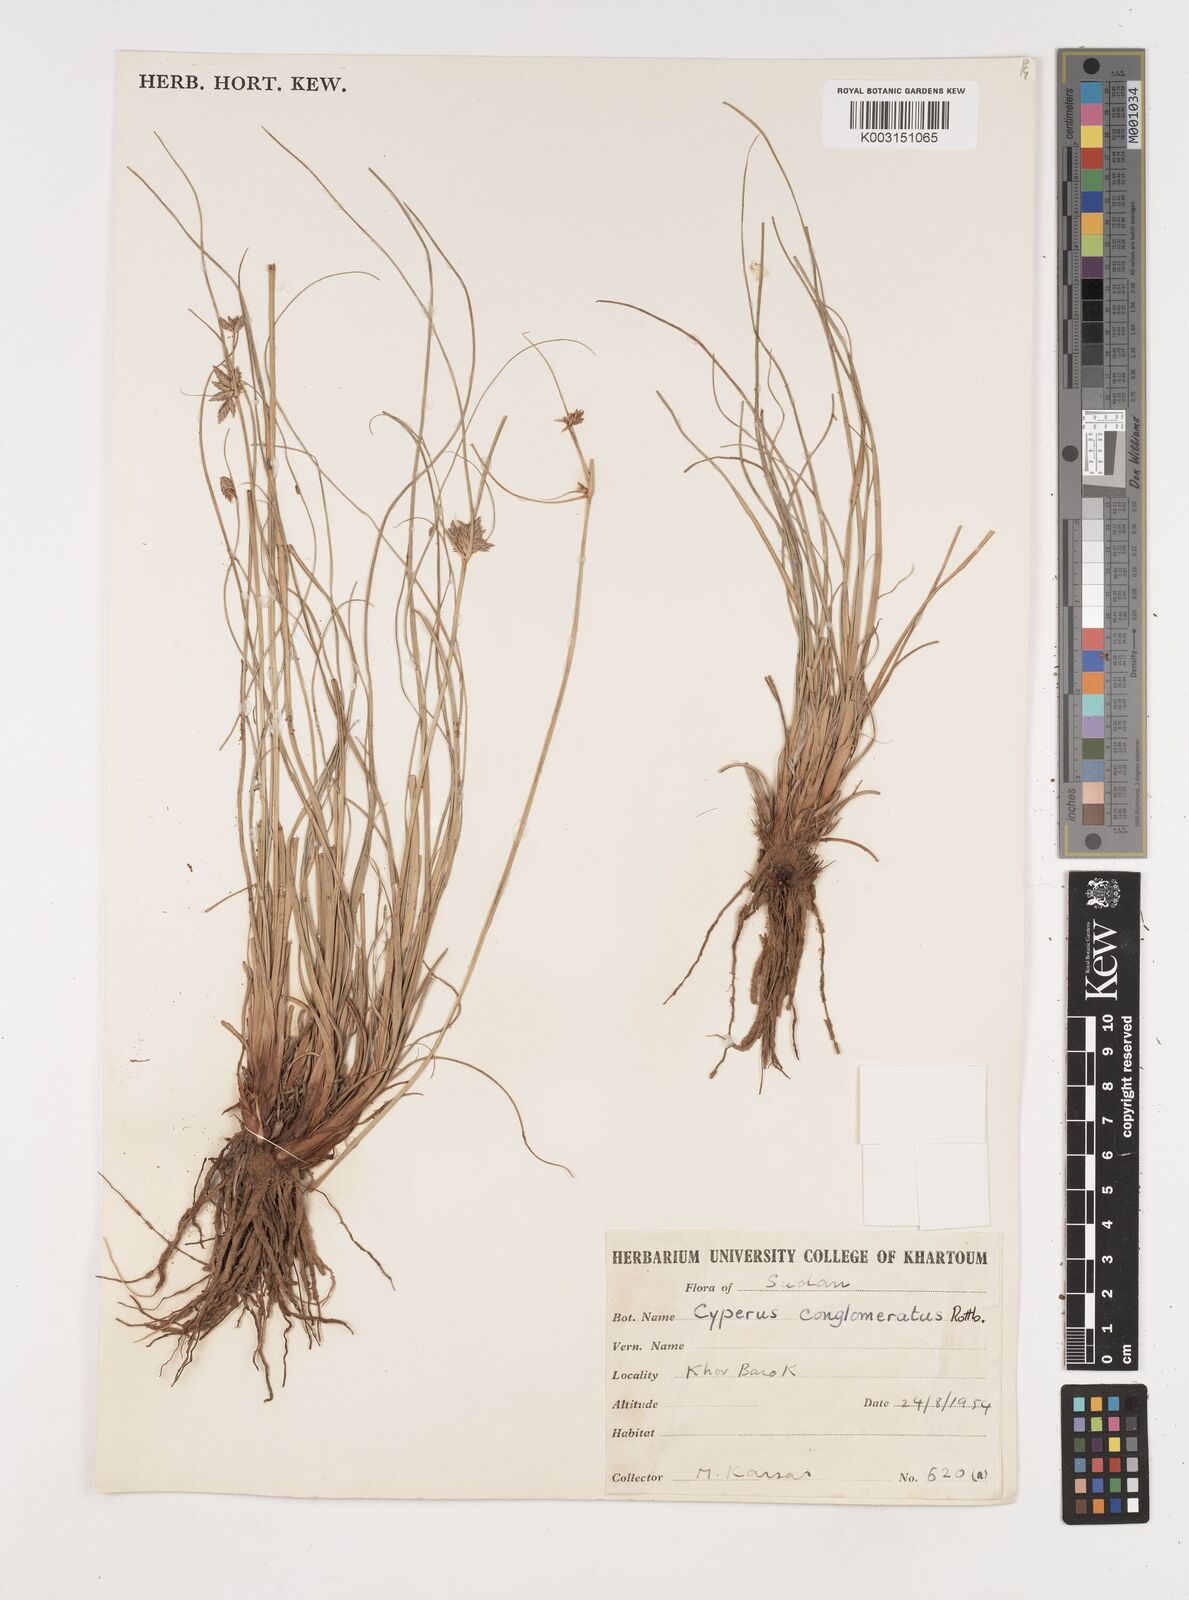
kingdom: Plantae
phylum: Tracheophyta
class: Liliopsida
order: Poales
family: Cyperaceae
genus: Cyperus
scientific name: Cyperus jeminicus
